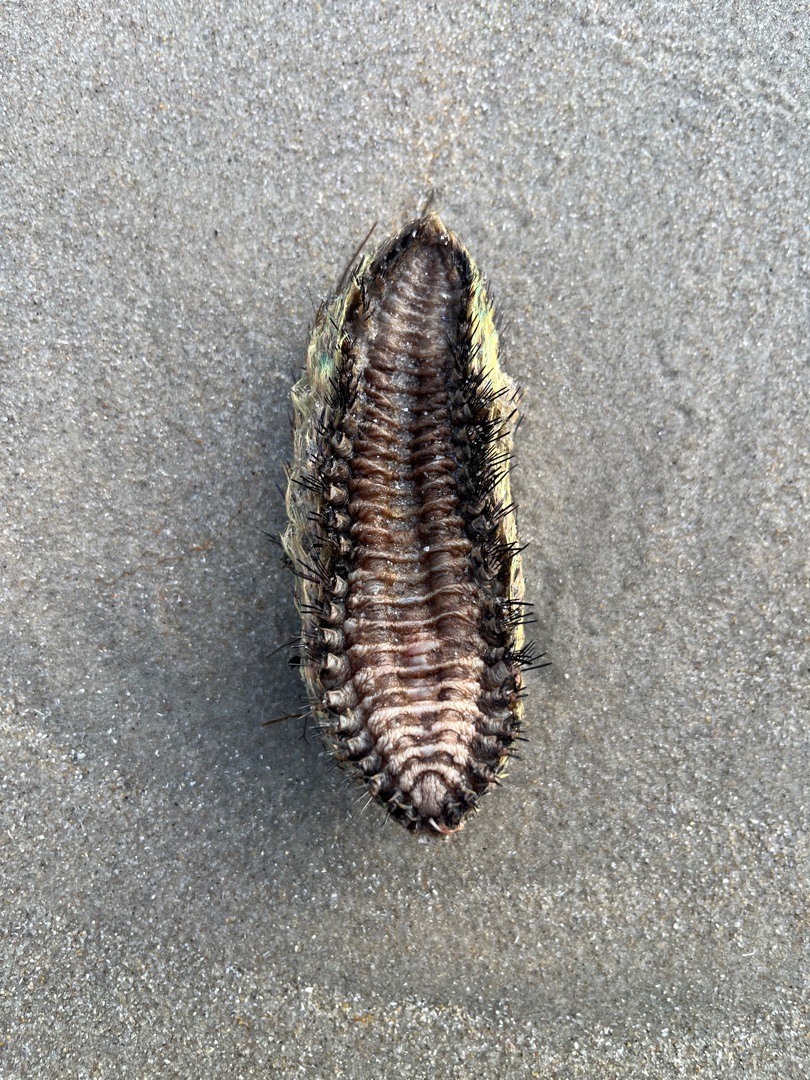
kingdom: Animalia
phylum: Annelida
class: Polychaeta
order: Phyllodocida
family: Aphroditidae
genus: Aphrodita
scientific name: Aphrodita aculeata
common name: Guldmus
